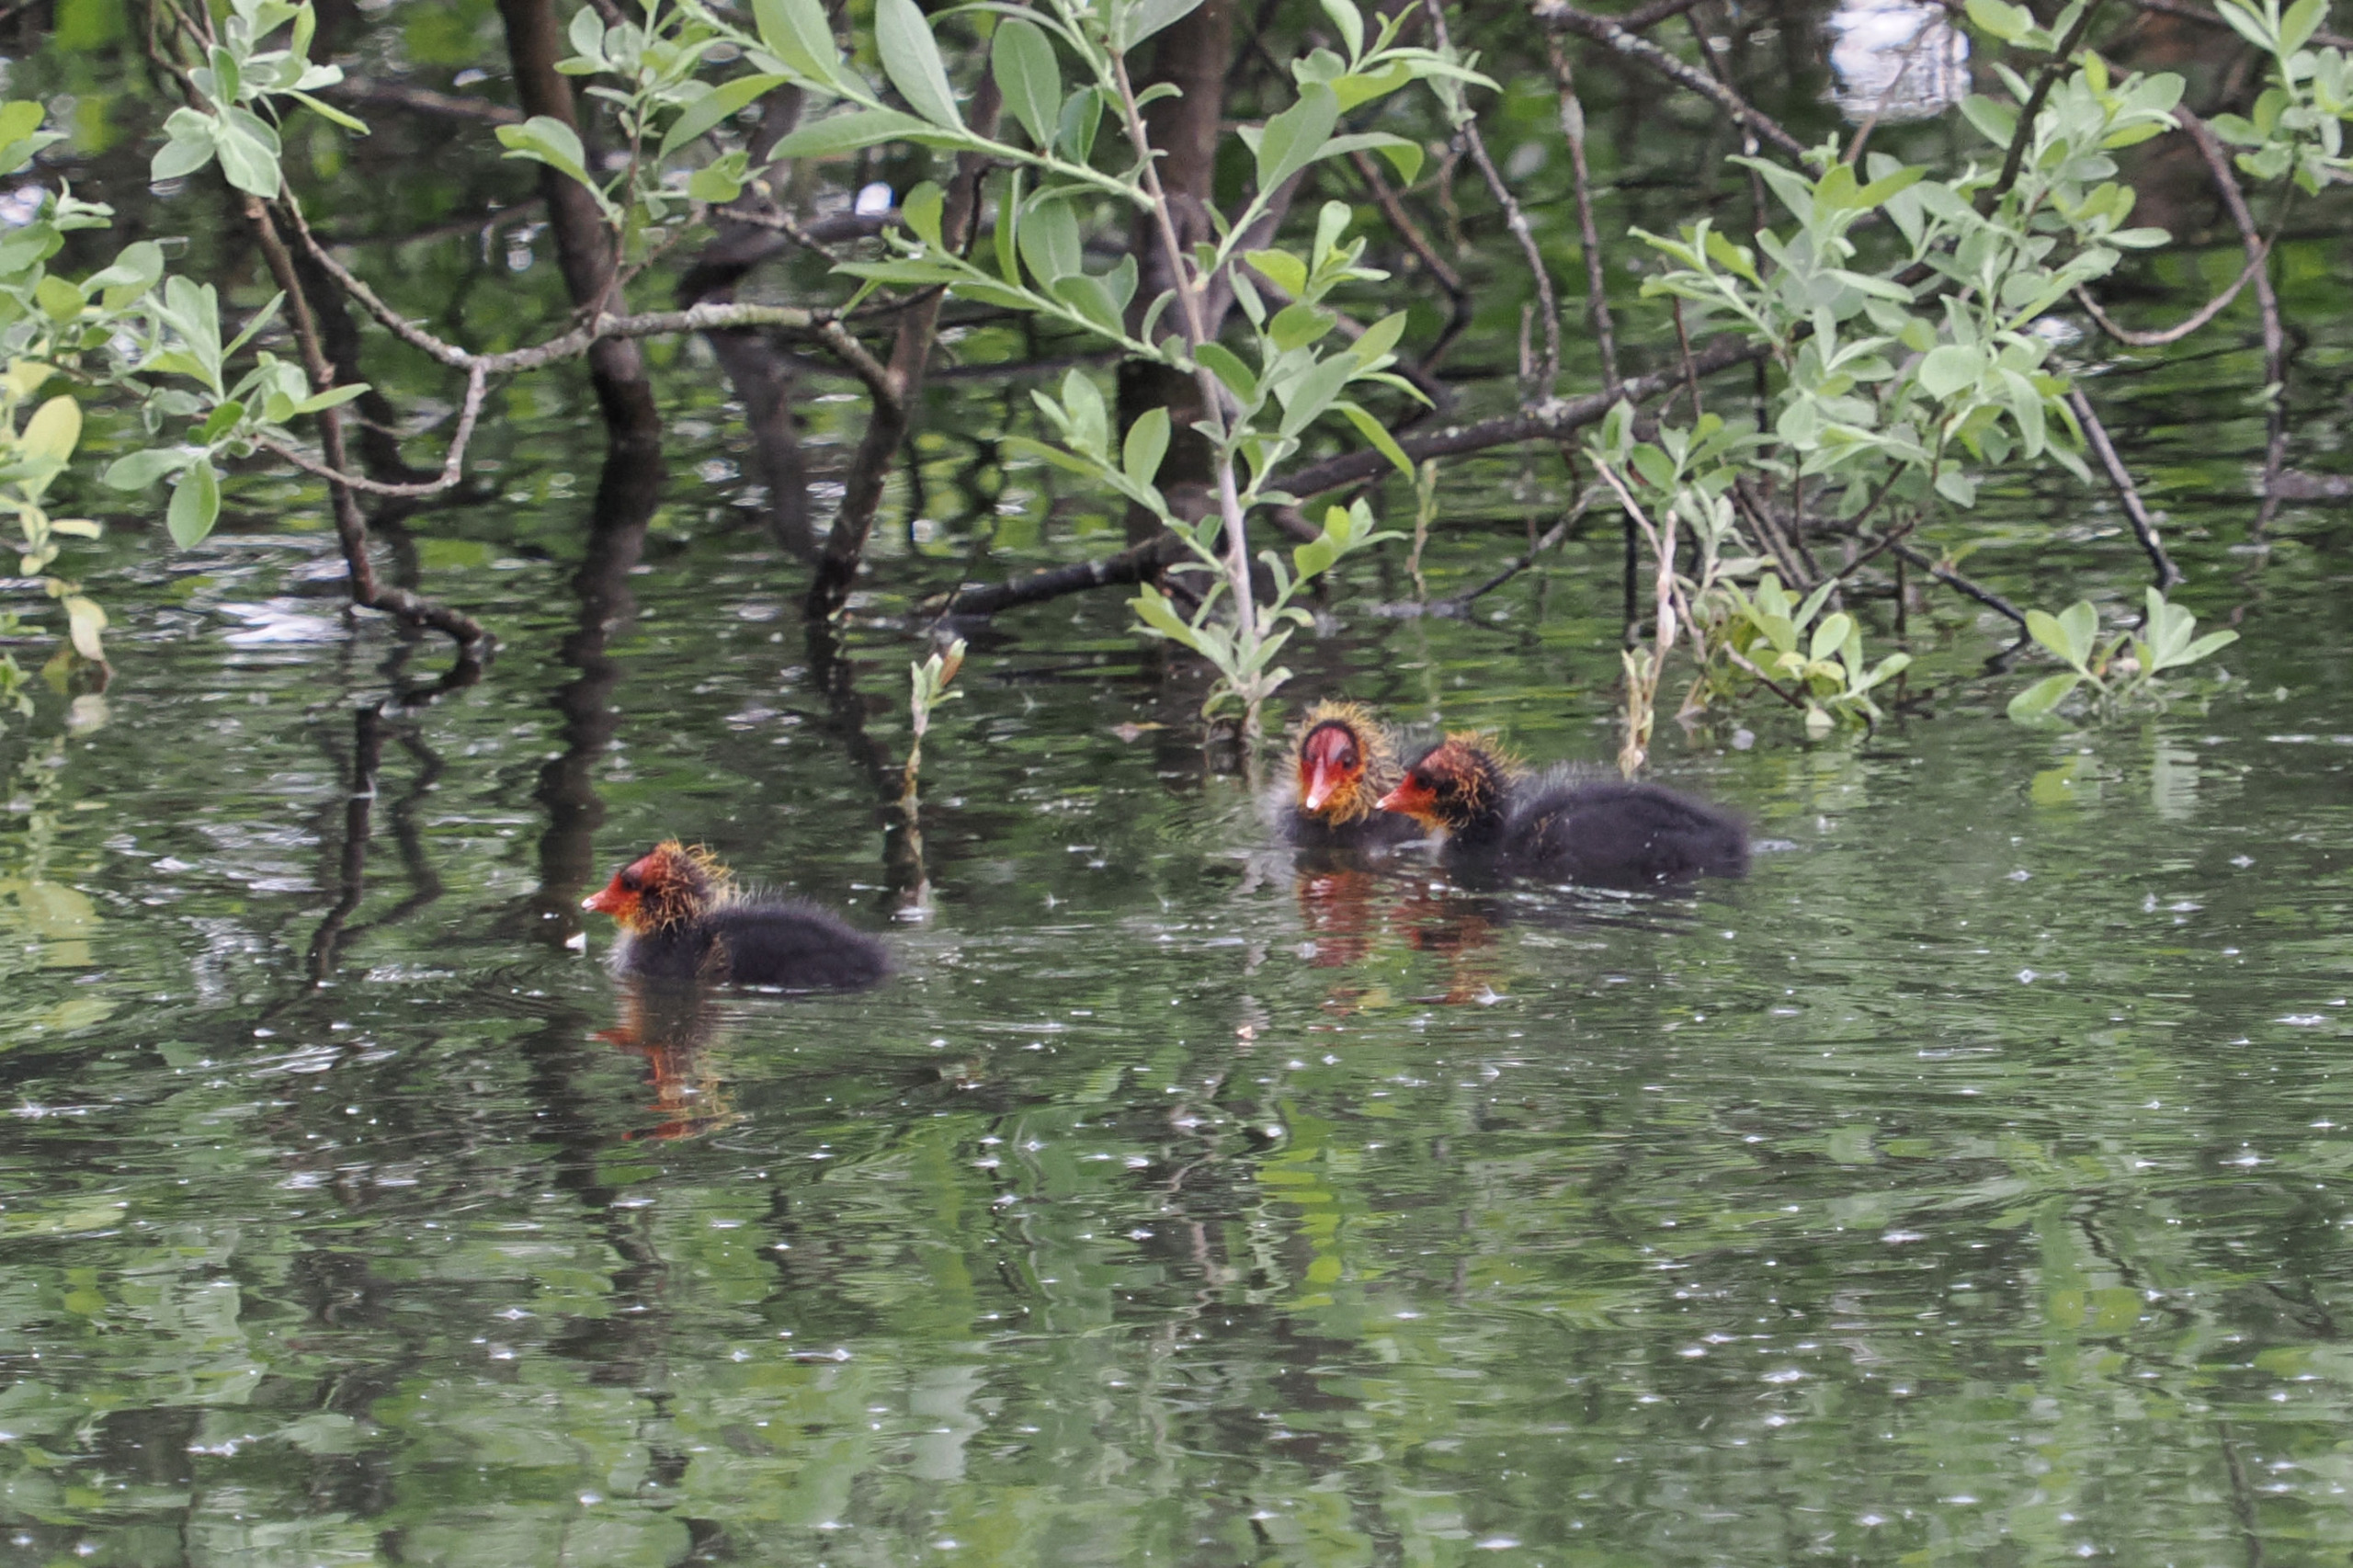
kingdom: Animalia
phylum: Chordata
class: Aves
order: Gruiformes
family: Rallidae
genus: Fulica
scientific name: Fulica atra
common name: Blishøne
